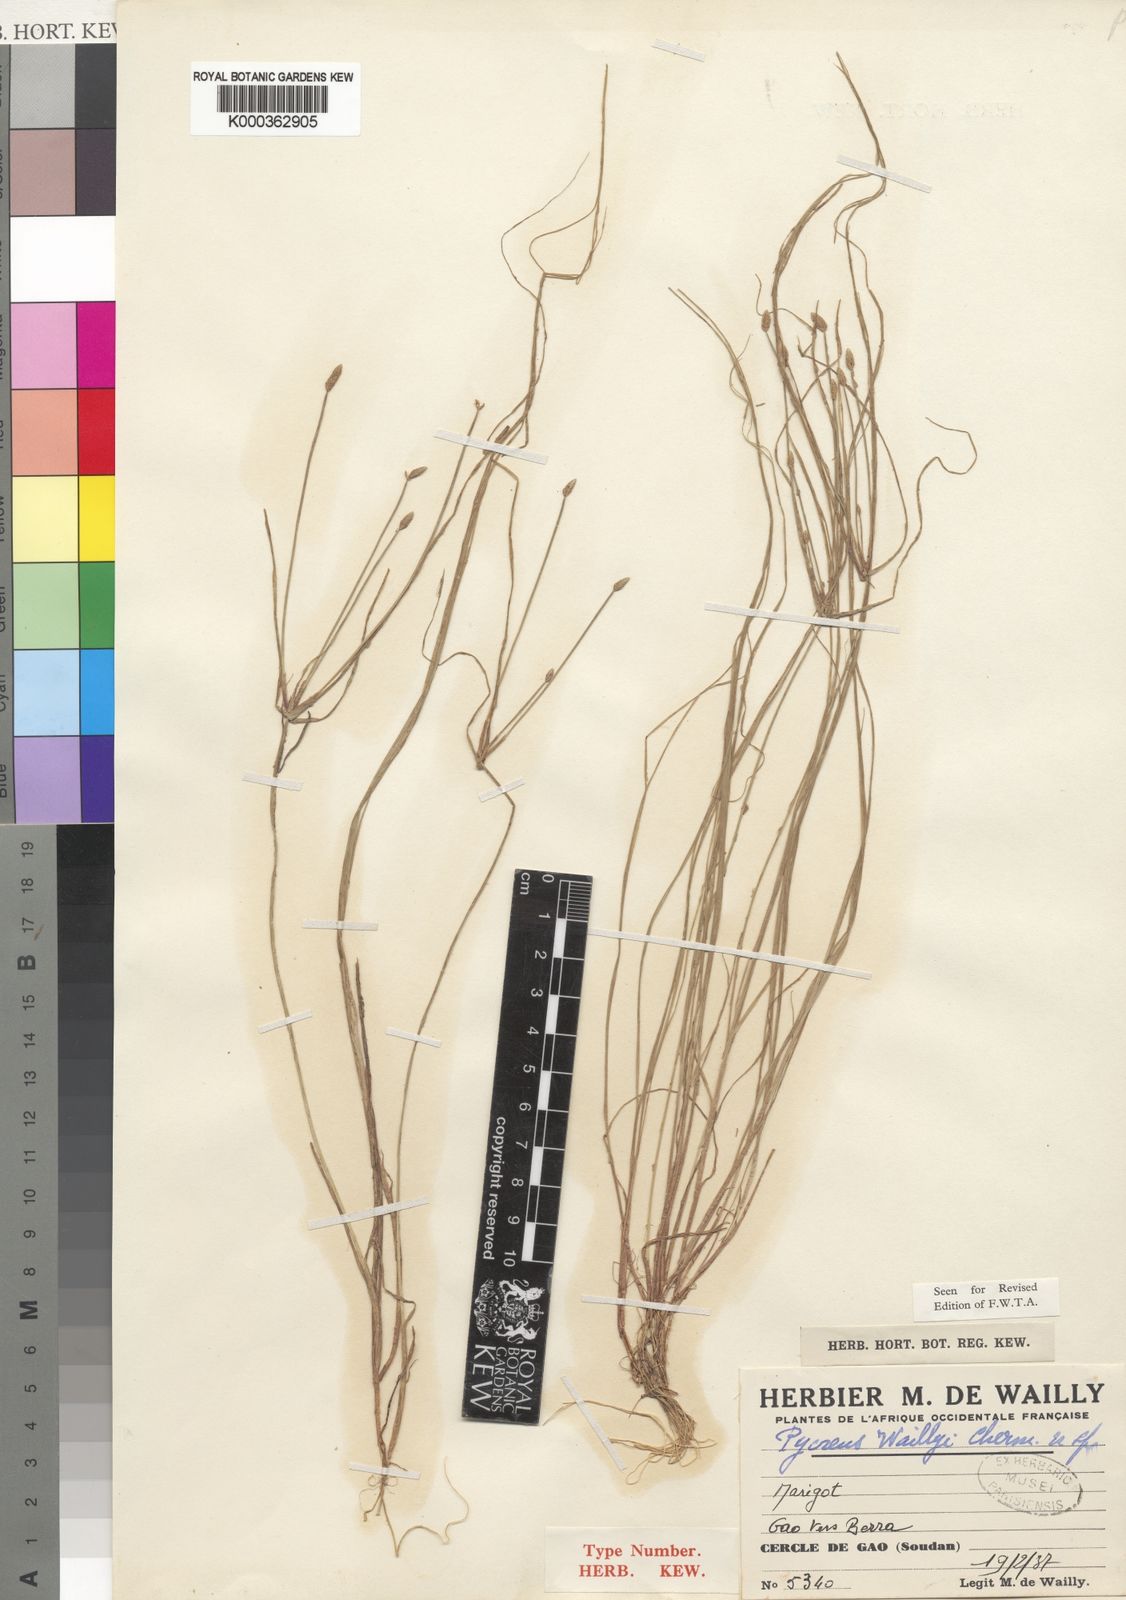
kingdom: Plantae
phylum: Tracheophyta
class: Liliopsida
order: Poales
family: Cyperaceae
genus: Cyperus
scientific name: Cyperus waillyi
